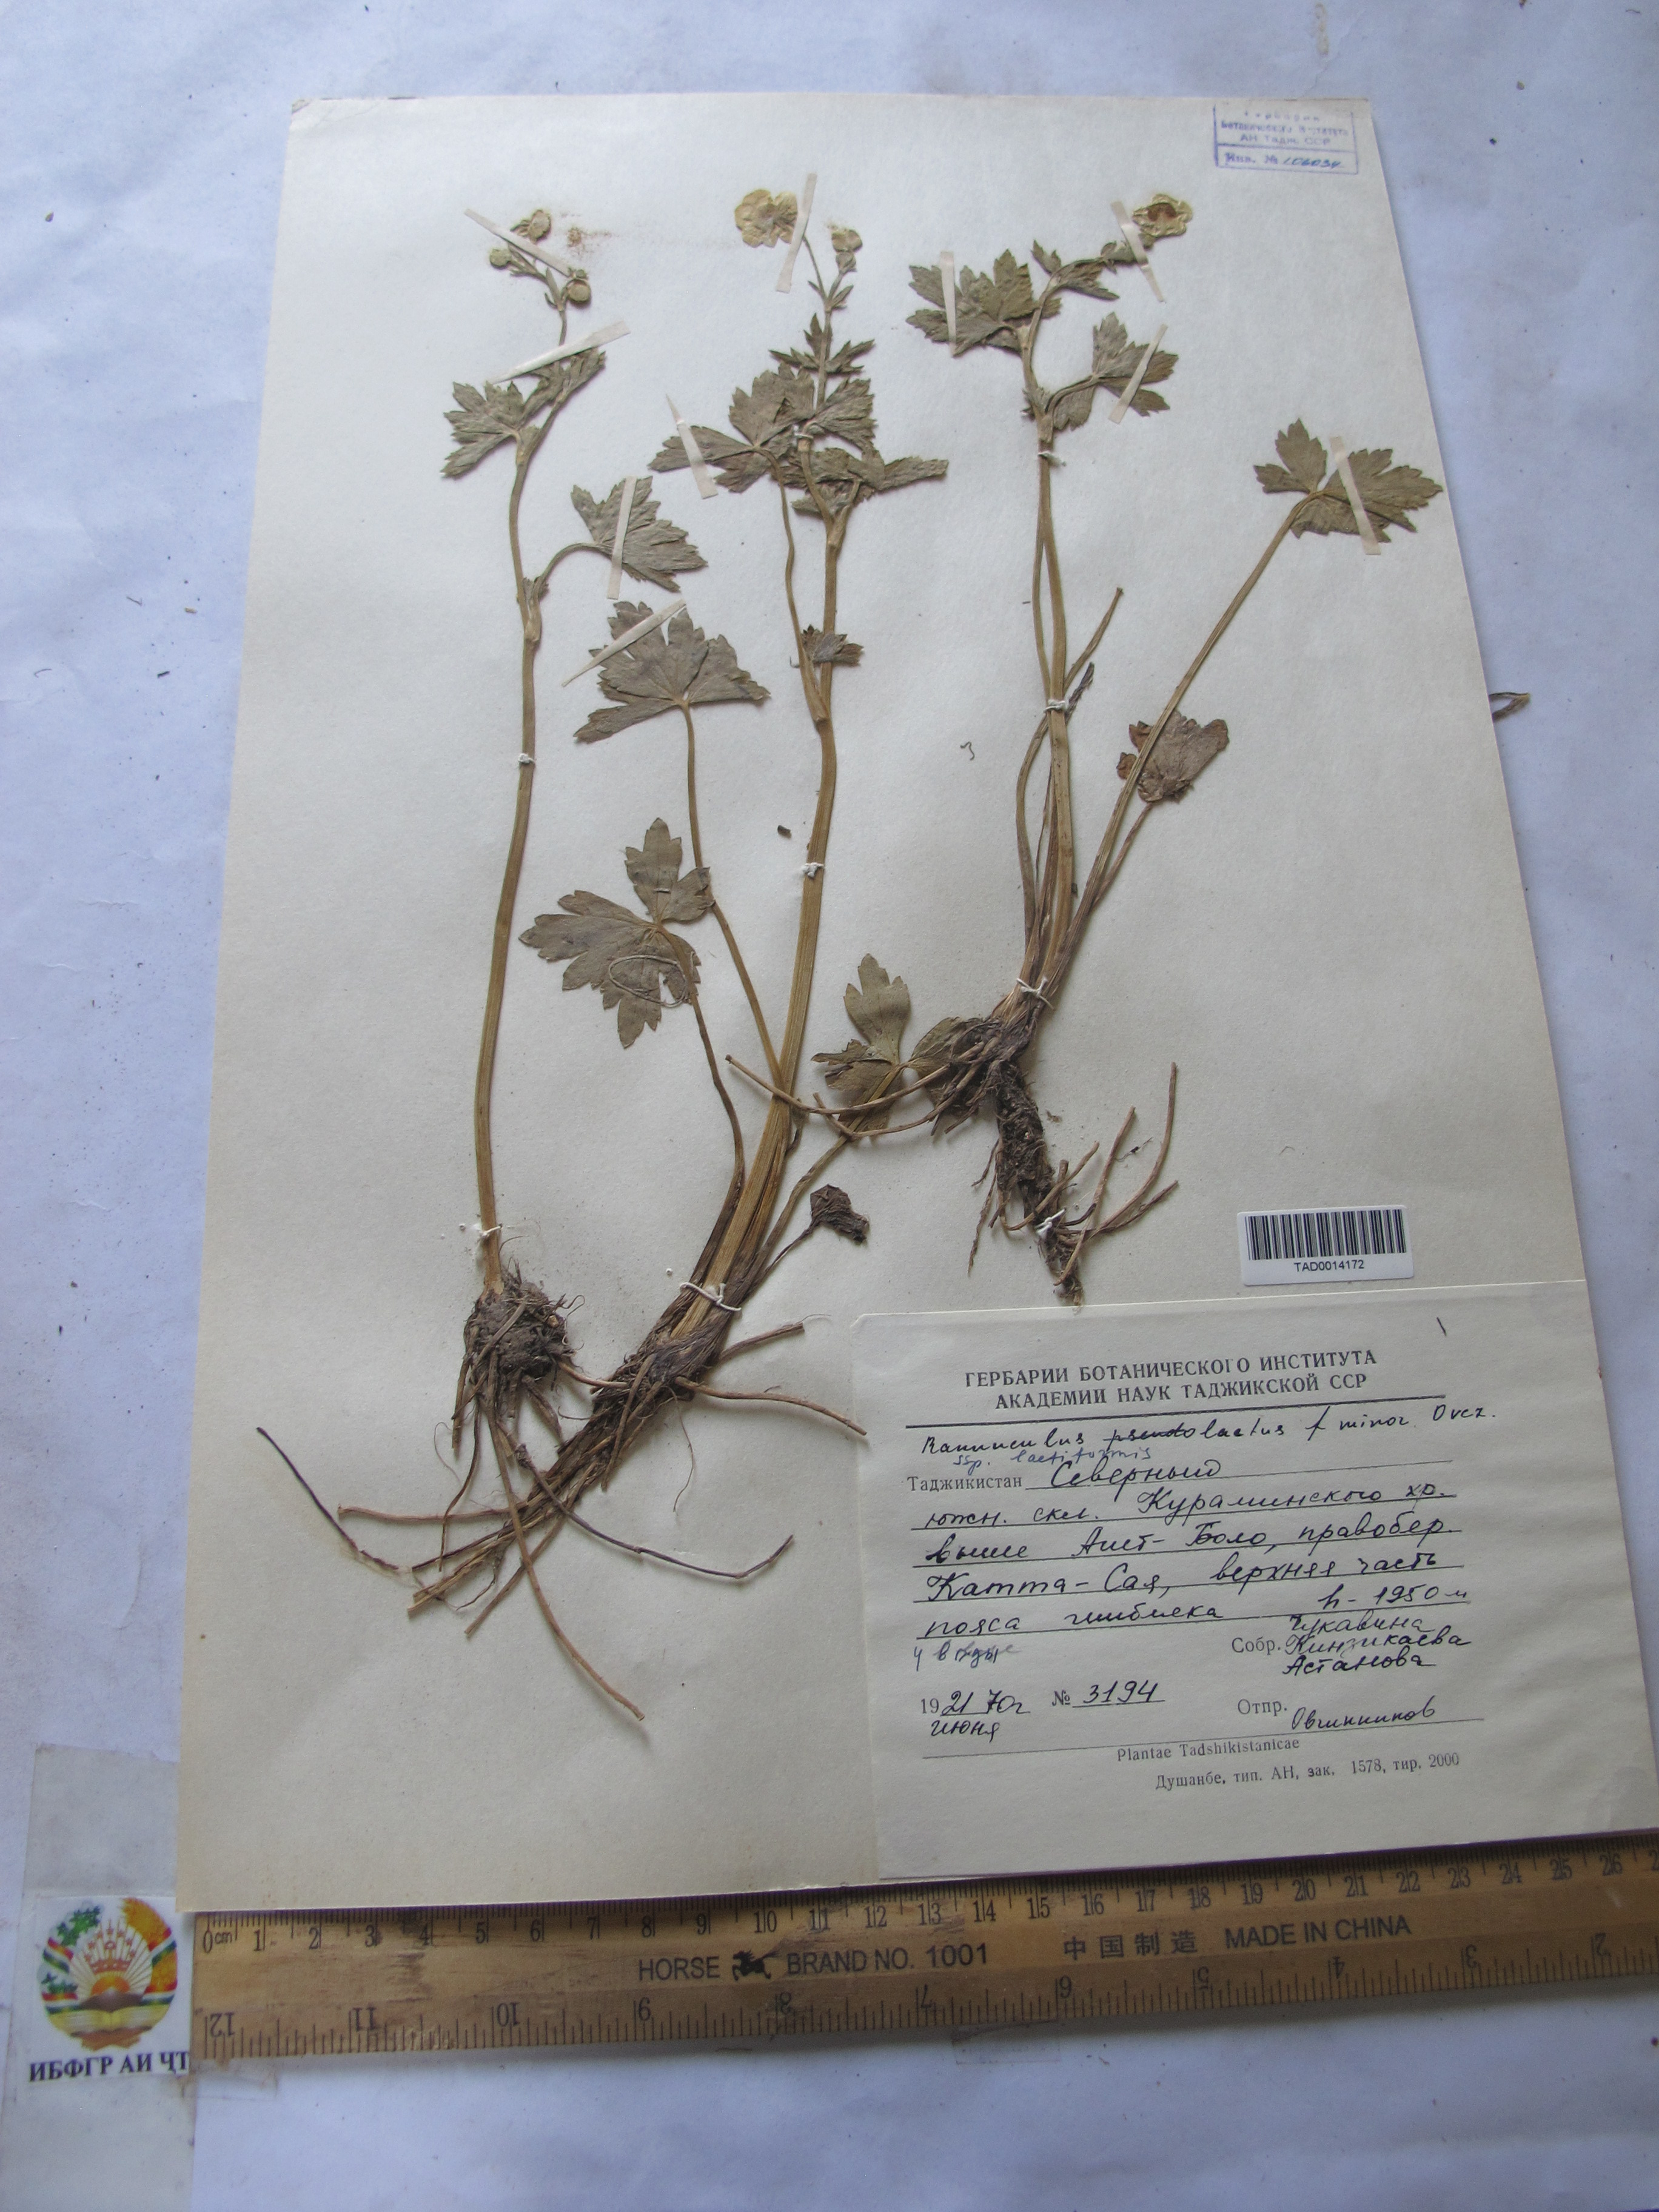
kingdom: Plantae
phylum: Tracheophyta
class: Magnoliopsida
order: Ranunculales
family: Ranunculaceae
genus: Ranunculus
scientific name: Ranunculus distans
